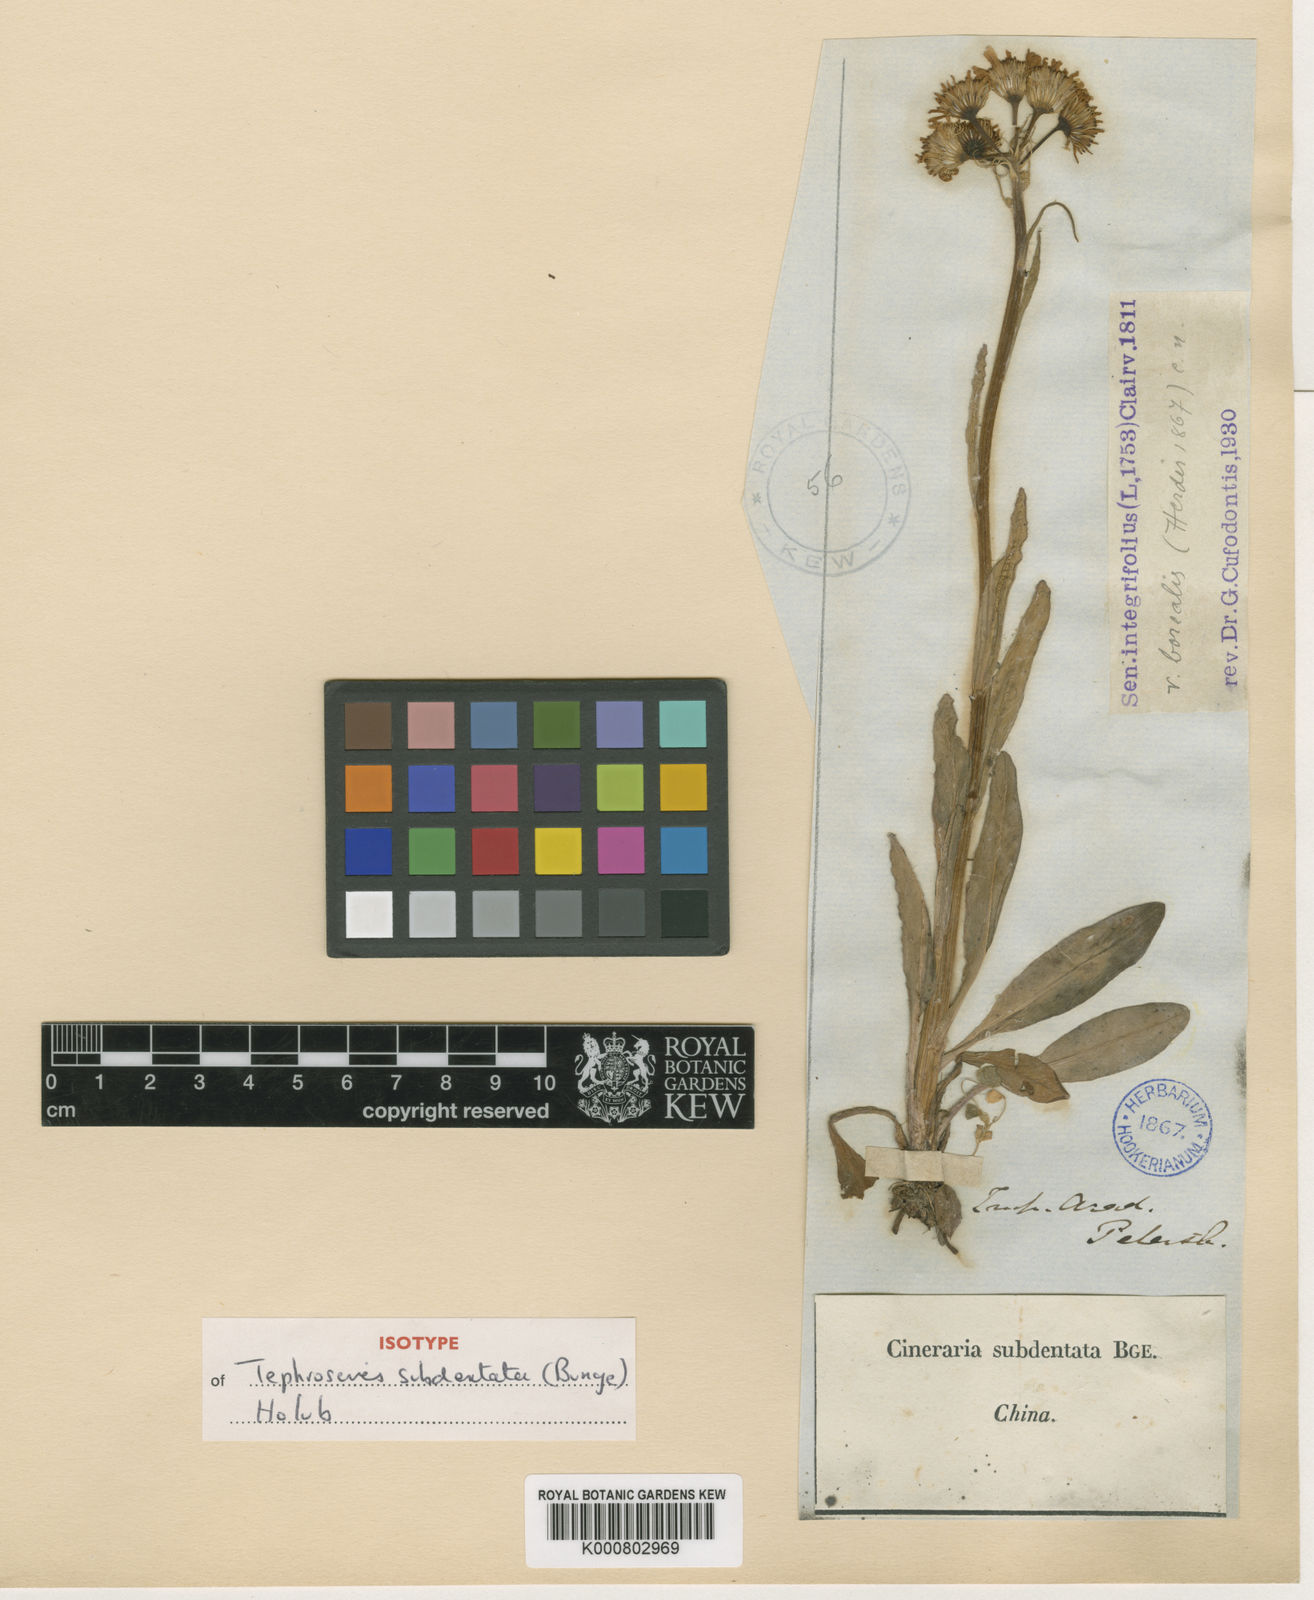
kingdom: Plantae
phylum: Tracheophyta
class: Magnoliopsida
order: Asterales
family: Asteraceae
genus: Tephroseris
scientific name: Tephroseris subdentata
